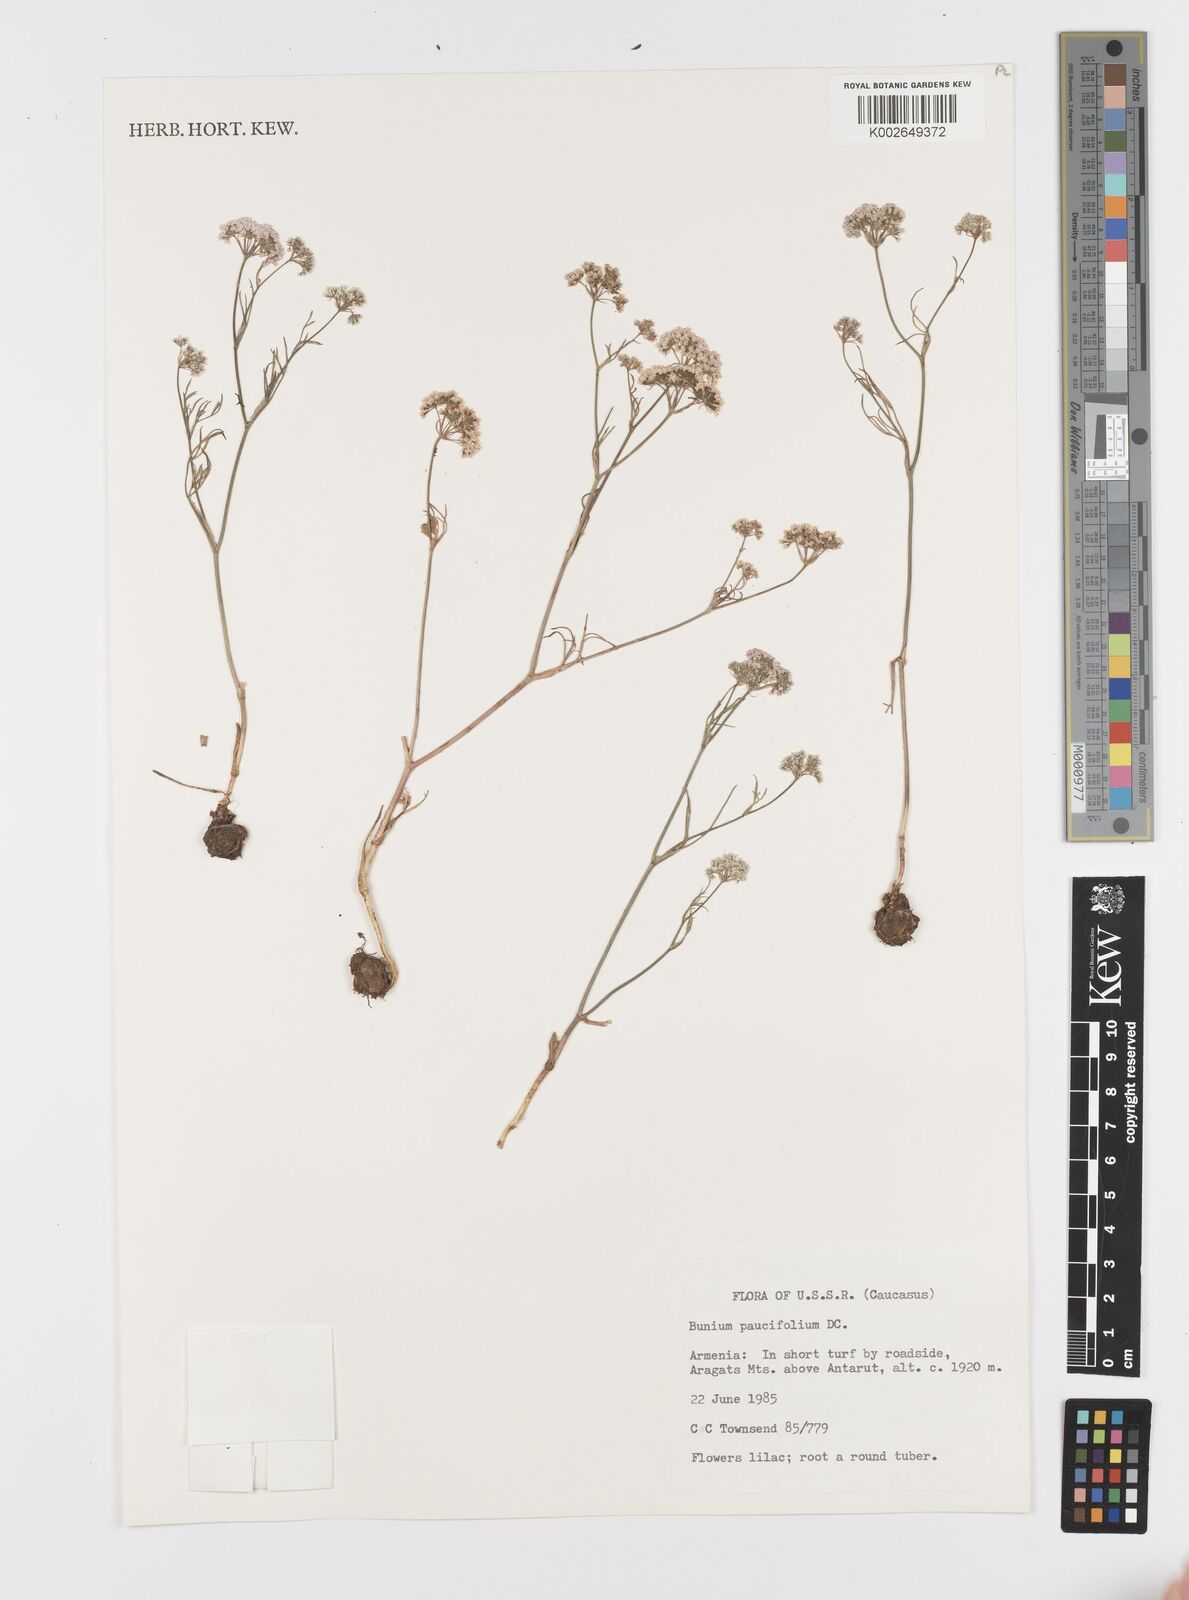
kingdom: Plantae
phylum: Tracheophyta
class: Magnoliopsida
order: Apiales
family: Apiaceae
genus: Bunium
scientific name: Bunium paucifolium
